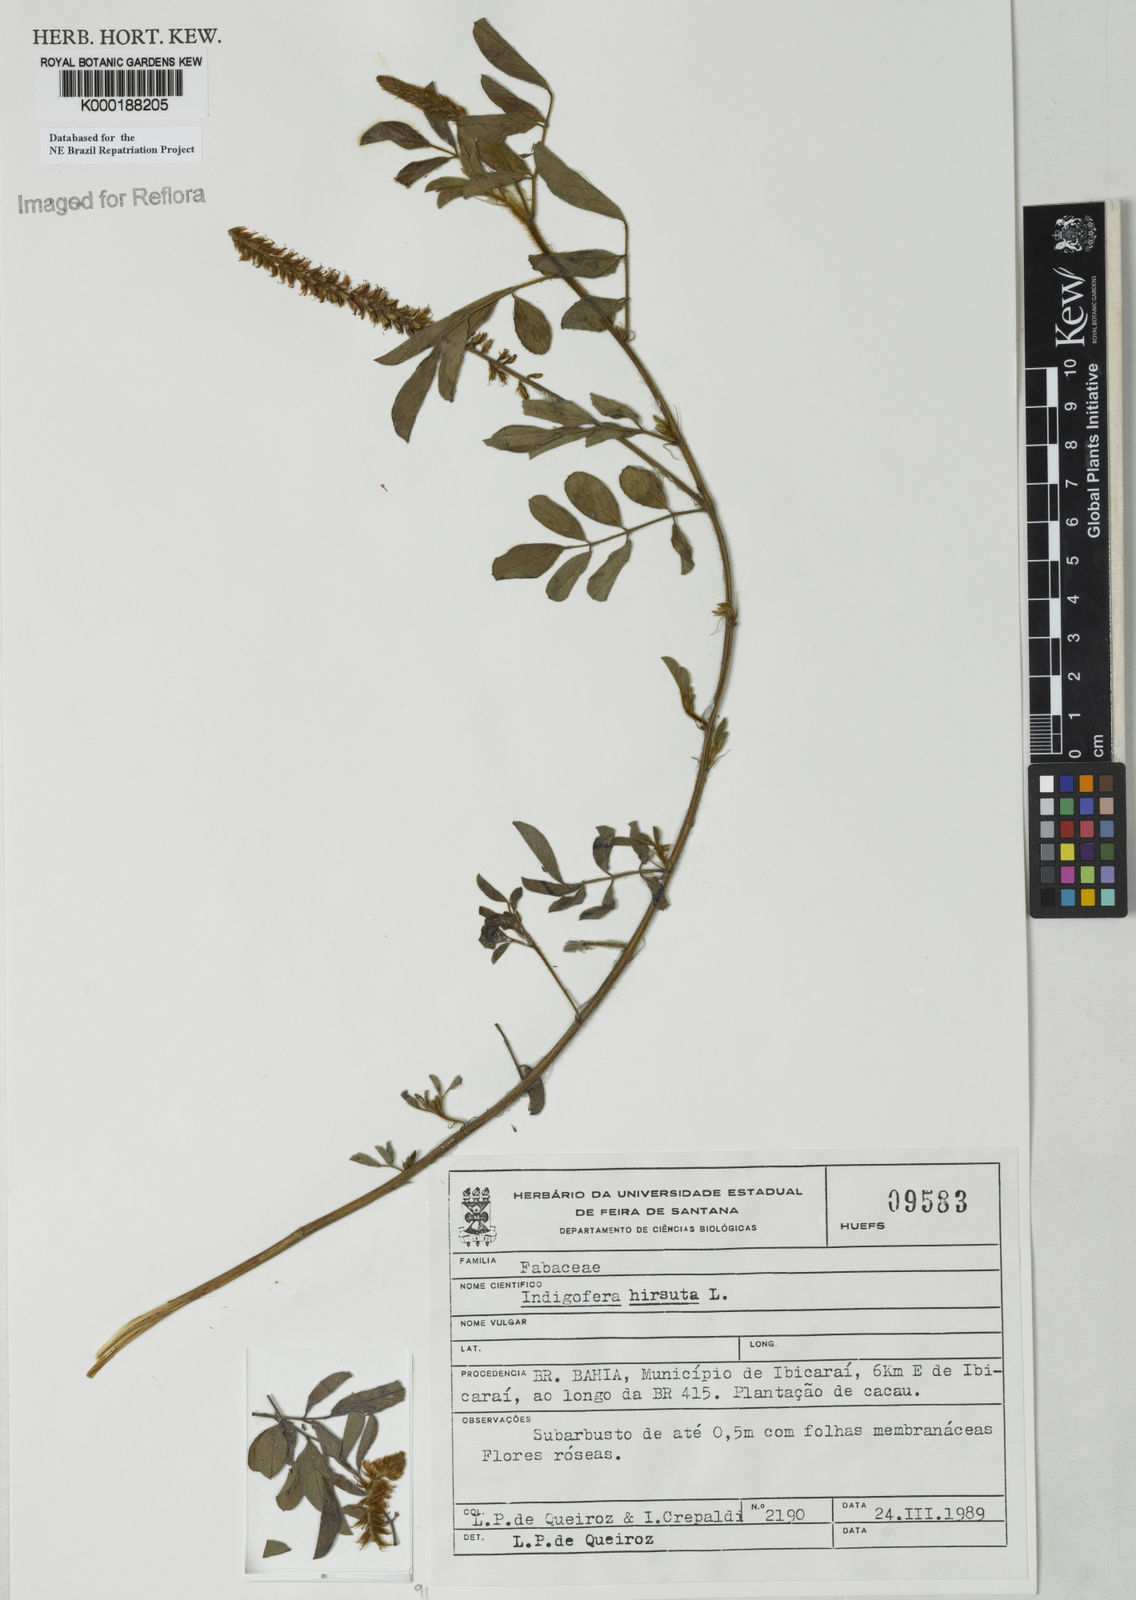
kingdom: Plantae
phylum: Tracheophyta
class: Magnoliopsida
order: Fabales
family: Fabaceae
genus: Indigofera
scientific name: Indigofera hirsuta
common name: Hairy indigo
